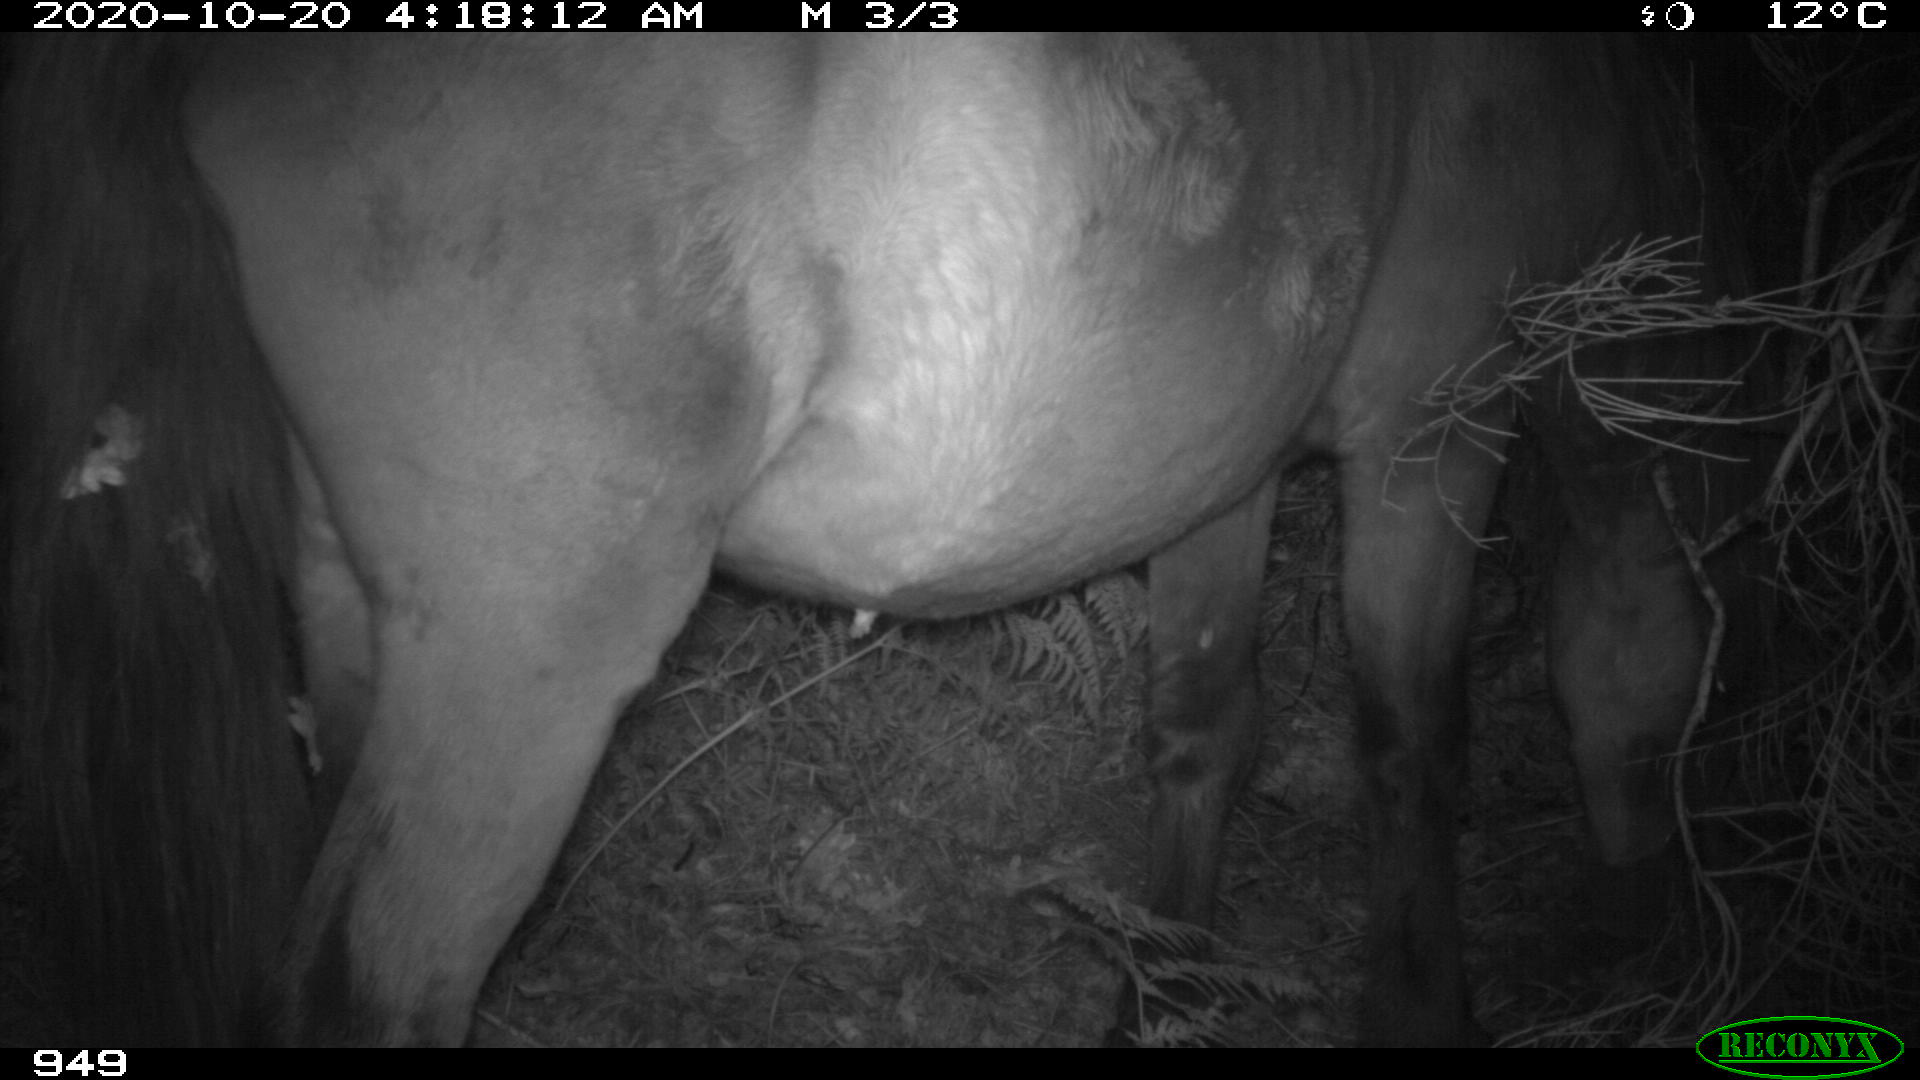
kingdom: Animalia
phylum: Chordata
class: Mammalia
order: Perissodactyla
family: Equidae
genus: Equus
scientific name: Equus caballus
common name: Horse
